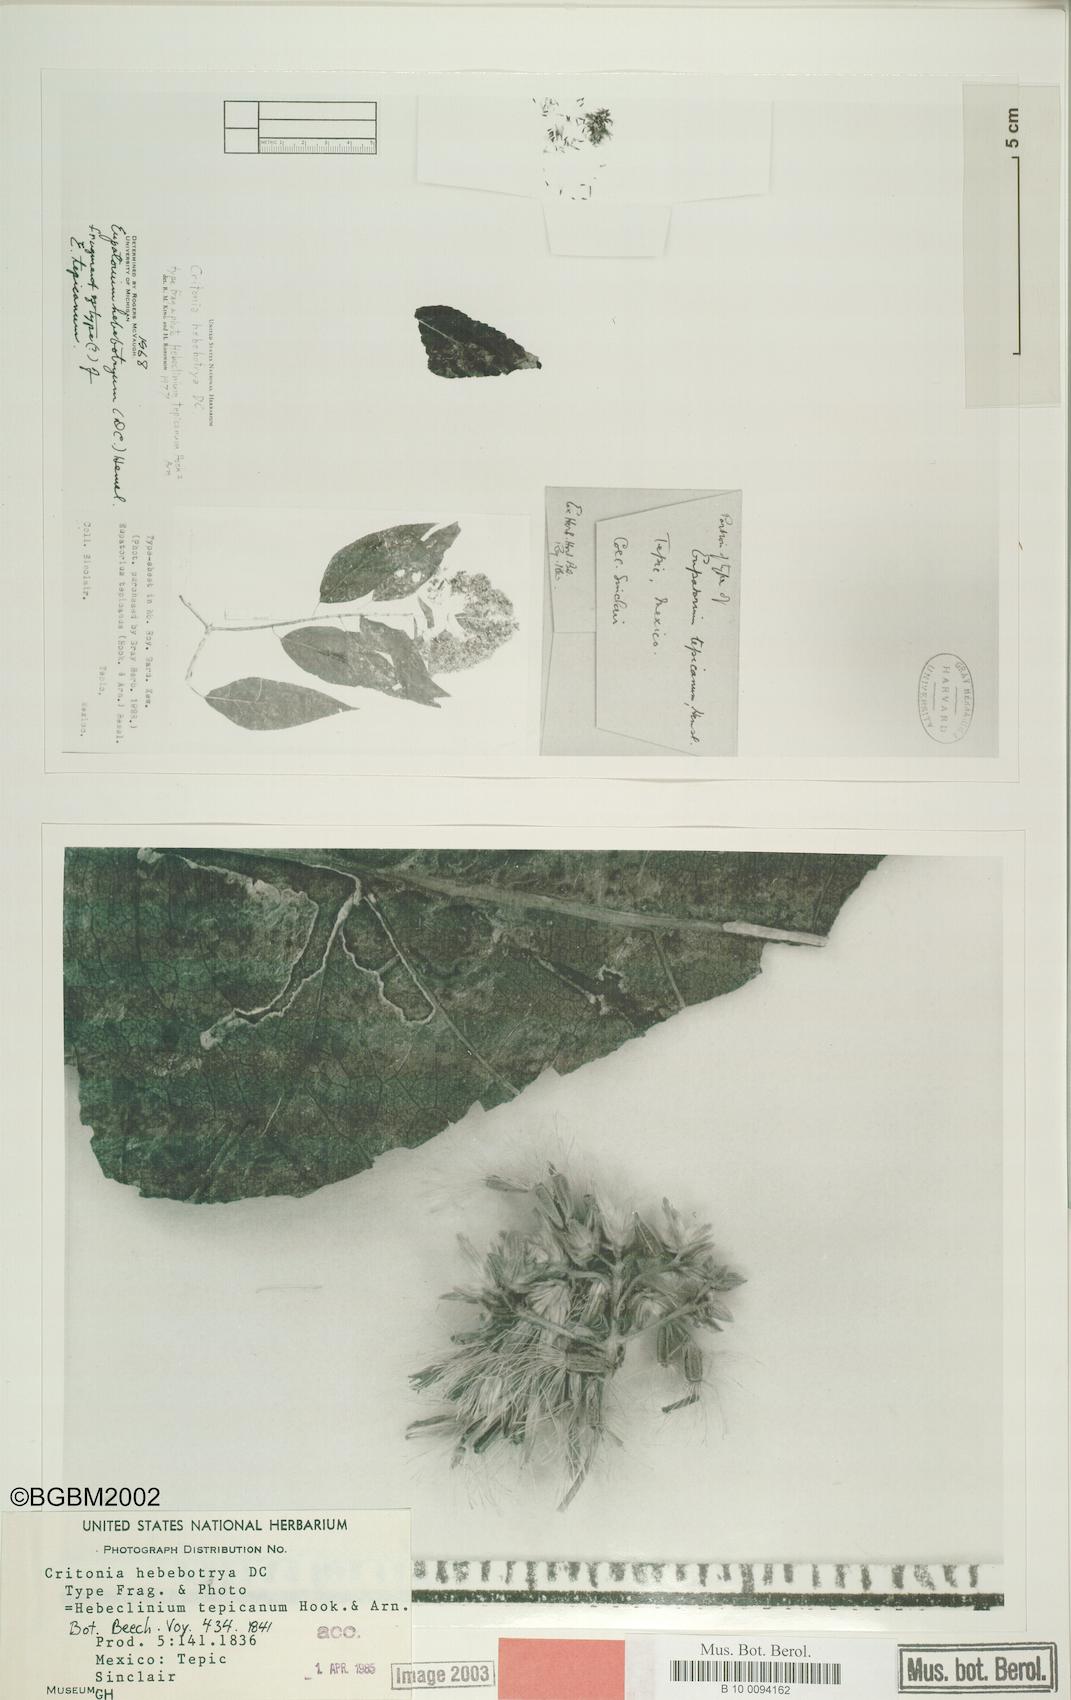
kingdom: Plantae
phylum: Tracheophyta
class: Magnoliopsida
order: Asterales
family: Asteraceae
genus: Critonia
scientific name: Critonia hebebotrya
